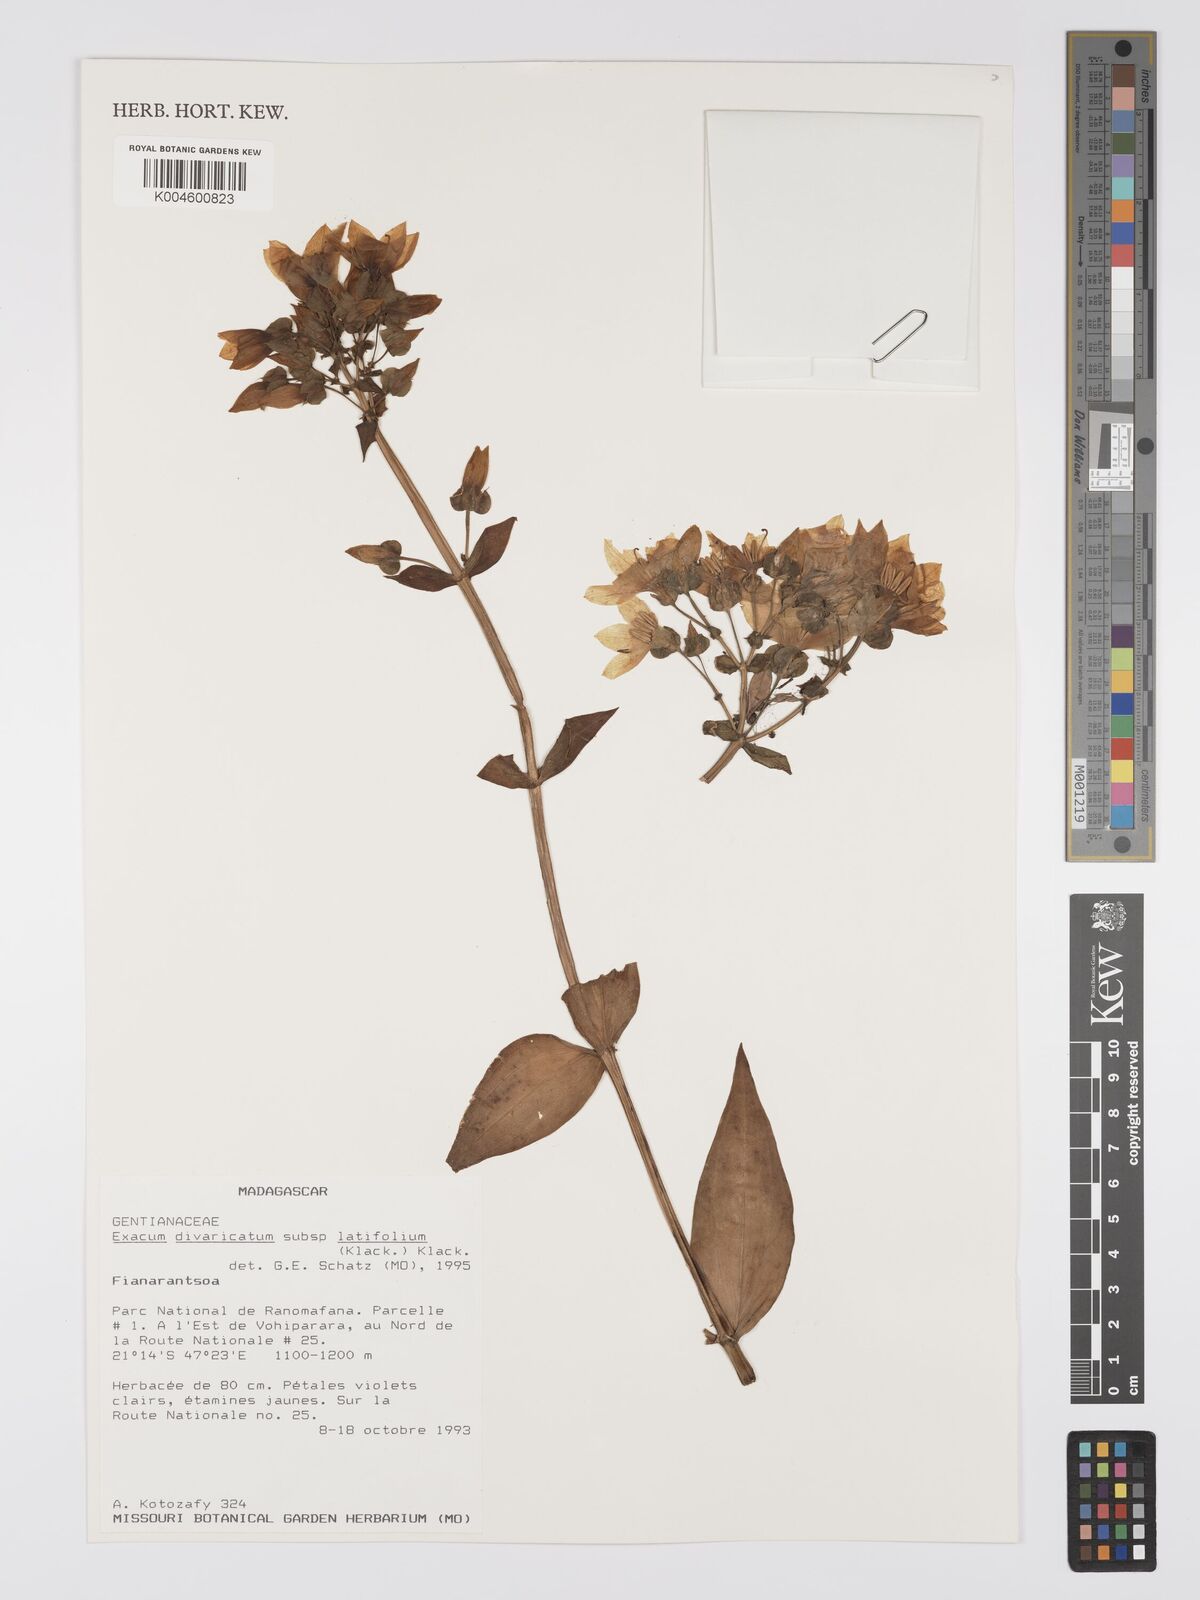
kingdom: Plantae
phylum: Tracheophyta
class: Magnoliopsida
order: Gentianales
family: Gentianaceae
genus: Exacum
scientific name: Exacum divaricatum
